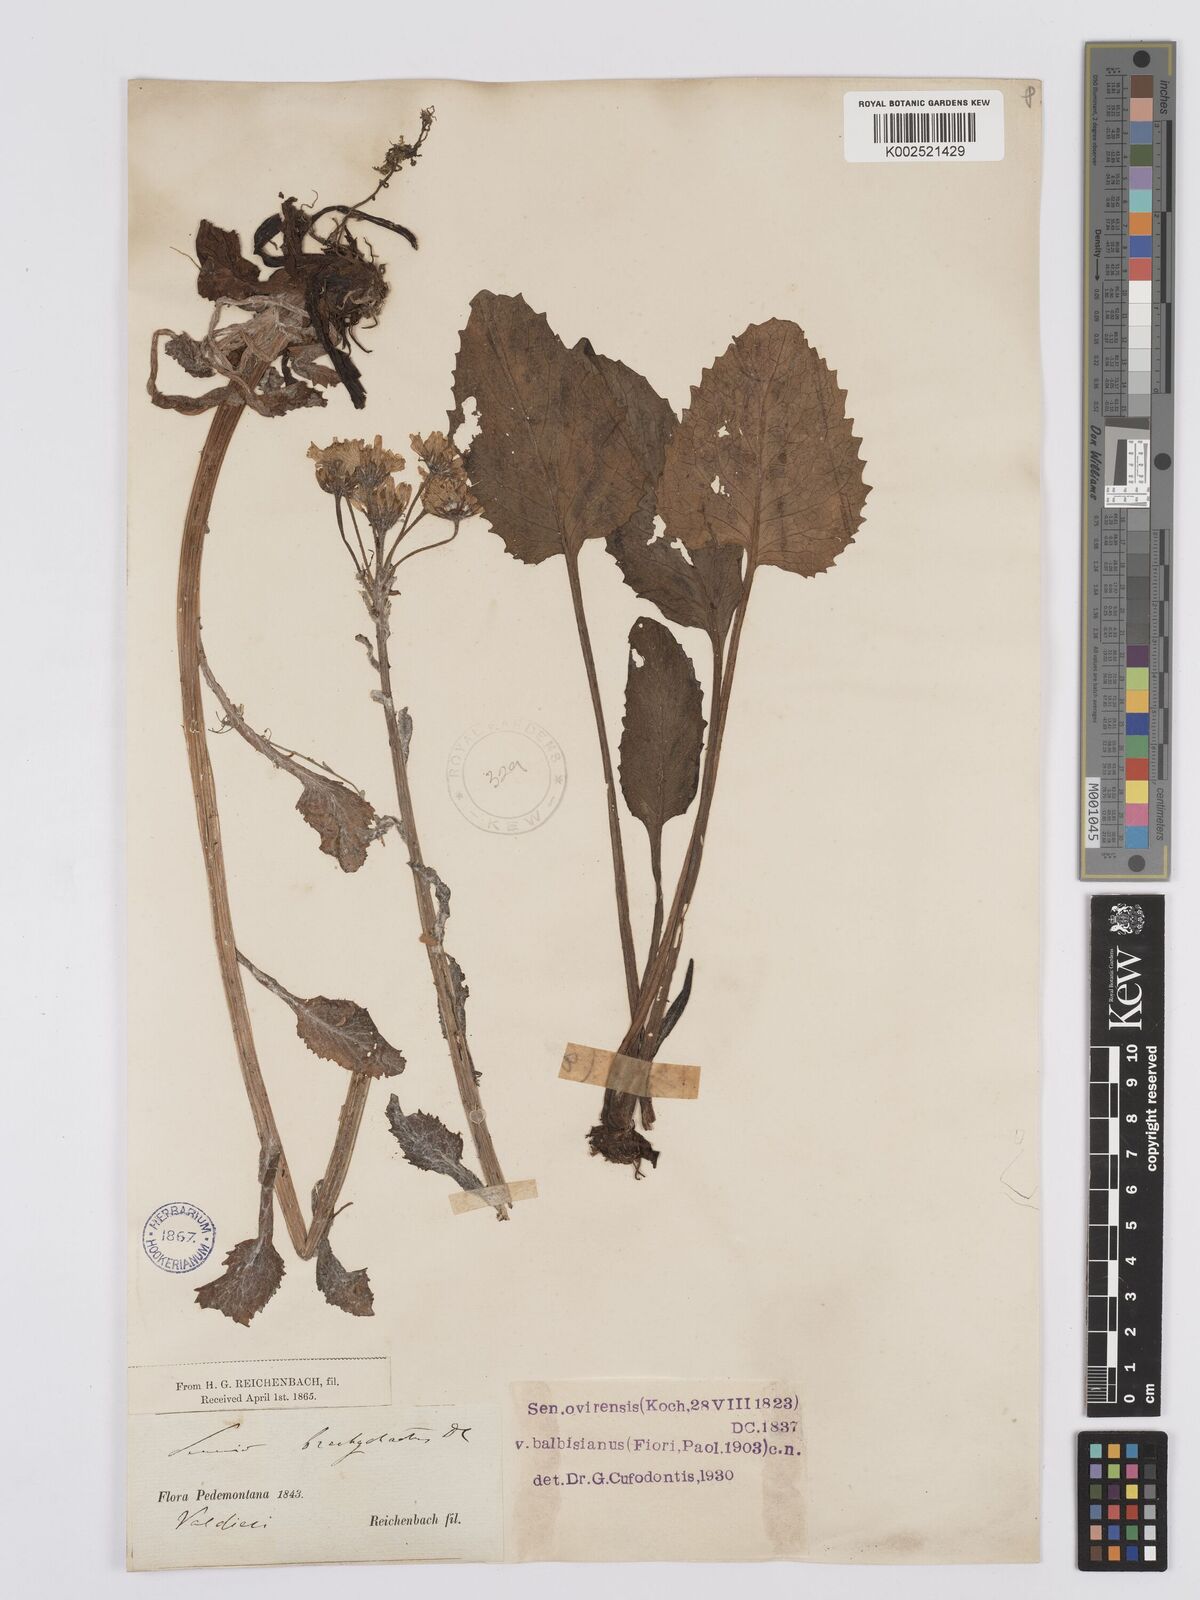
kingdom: Plantae
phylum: Tracheophyta
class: Magnoliopsida
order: Asterales
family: Asteraceae
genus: Tephroseris
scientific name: Tephroseris balbisiana
